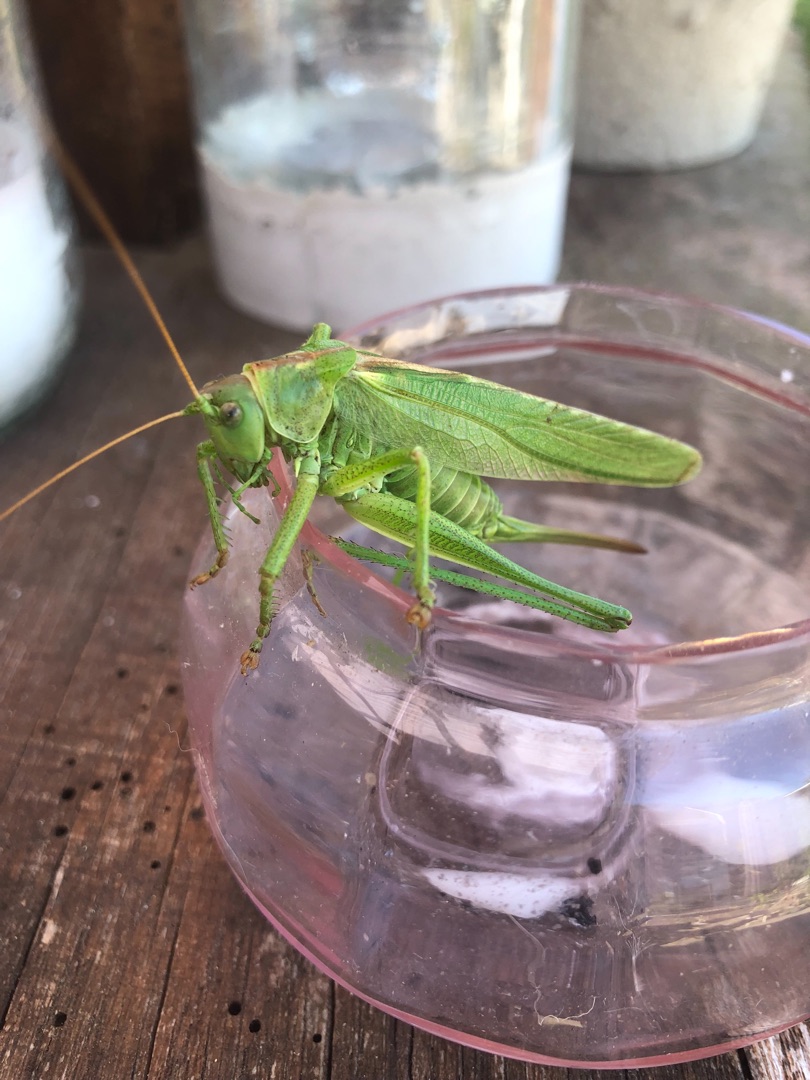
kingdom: Animalia
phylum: Arthropoda
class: Insecta
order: Orthoptera
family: Tettigoniidae
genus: Tettigonia
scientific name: Tettigonia viridissima
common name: Stor grøn løvgræshoppe
